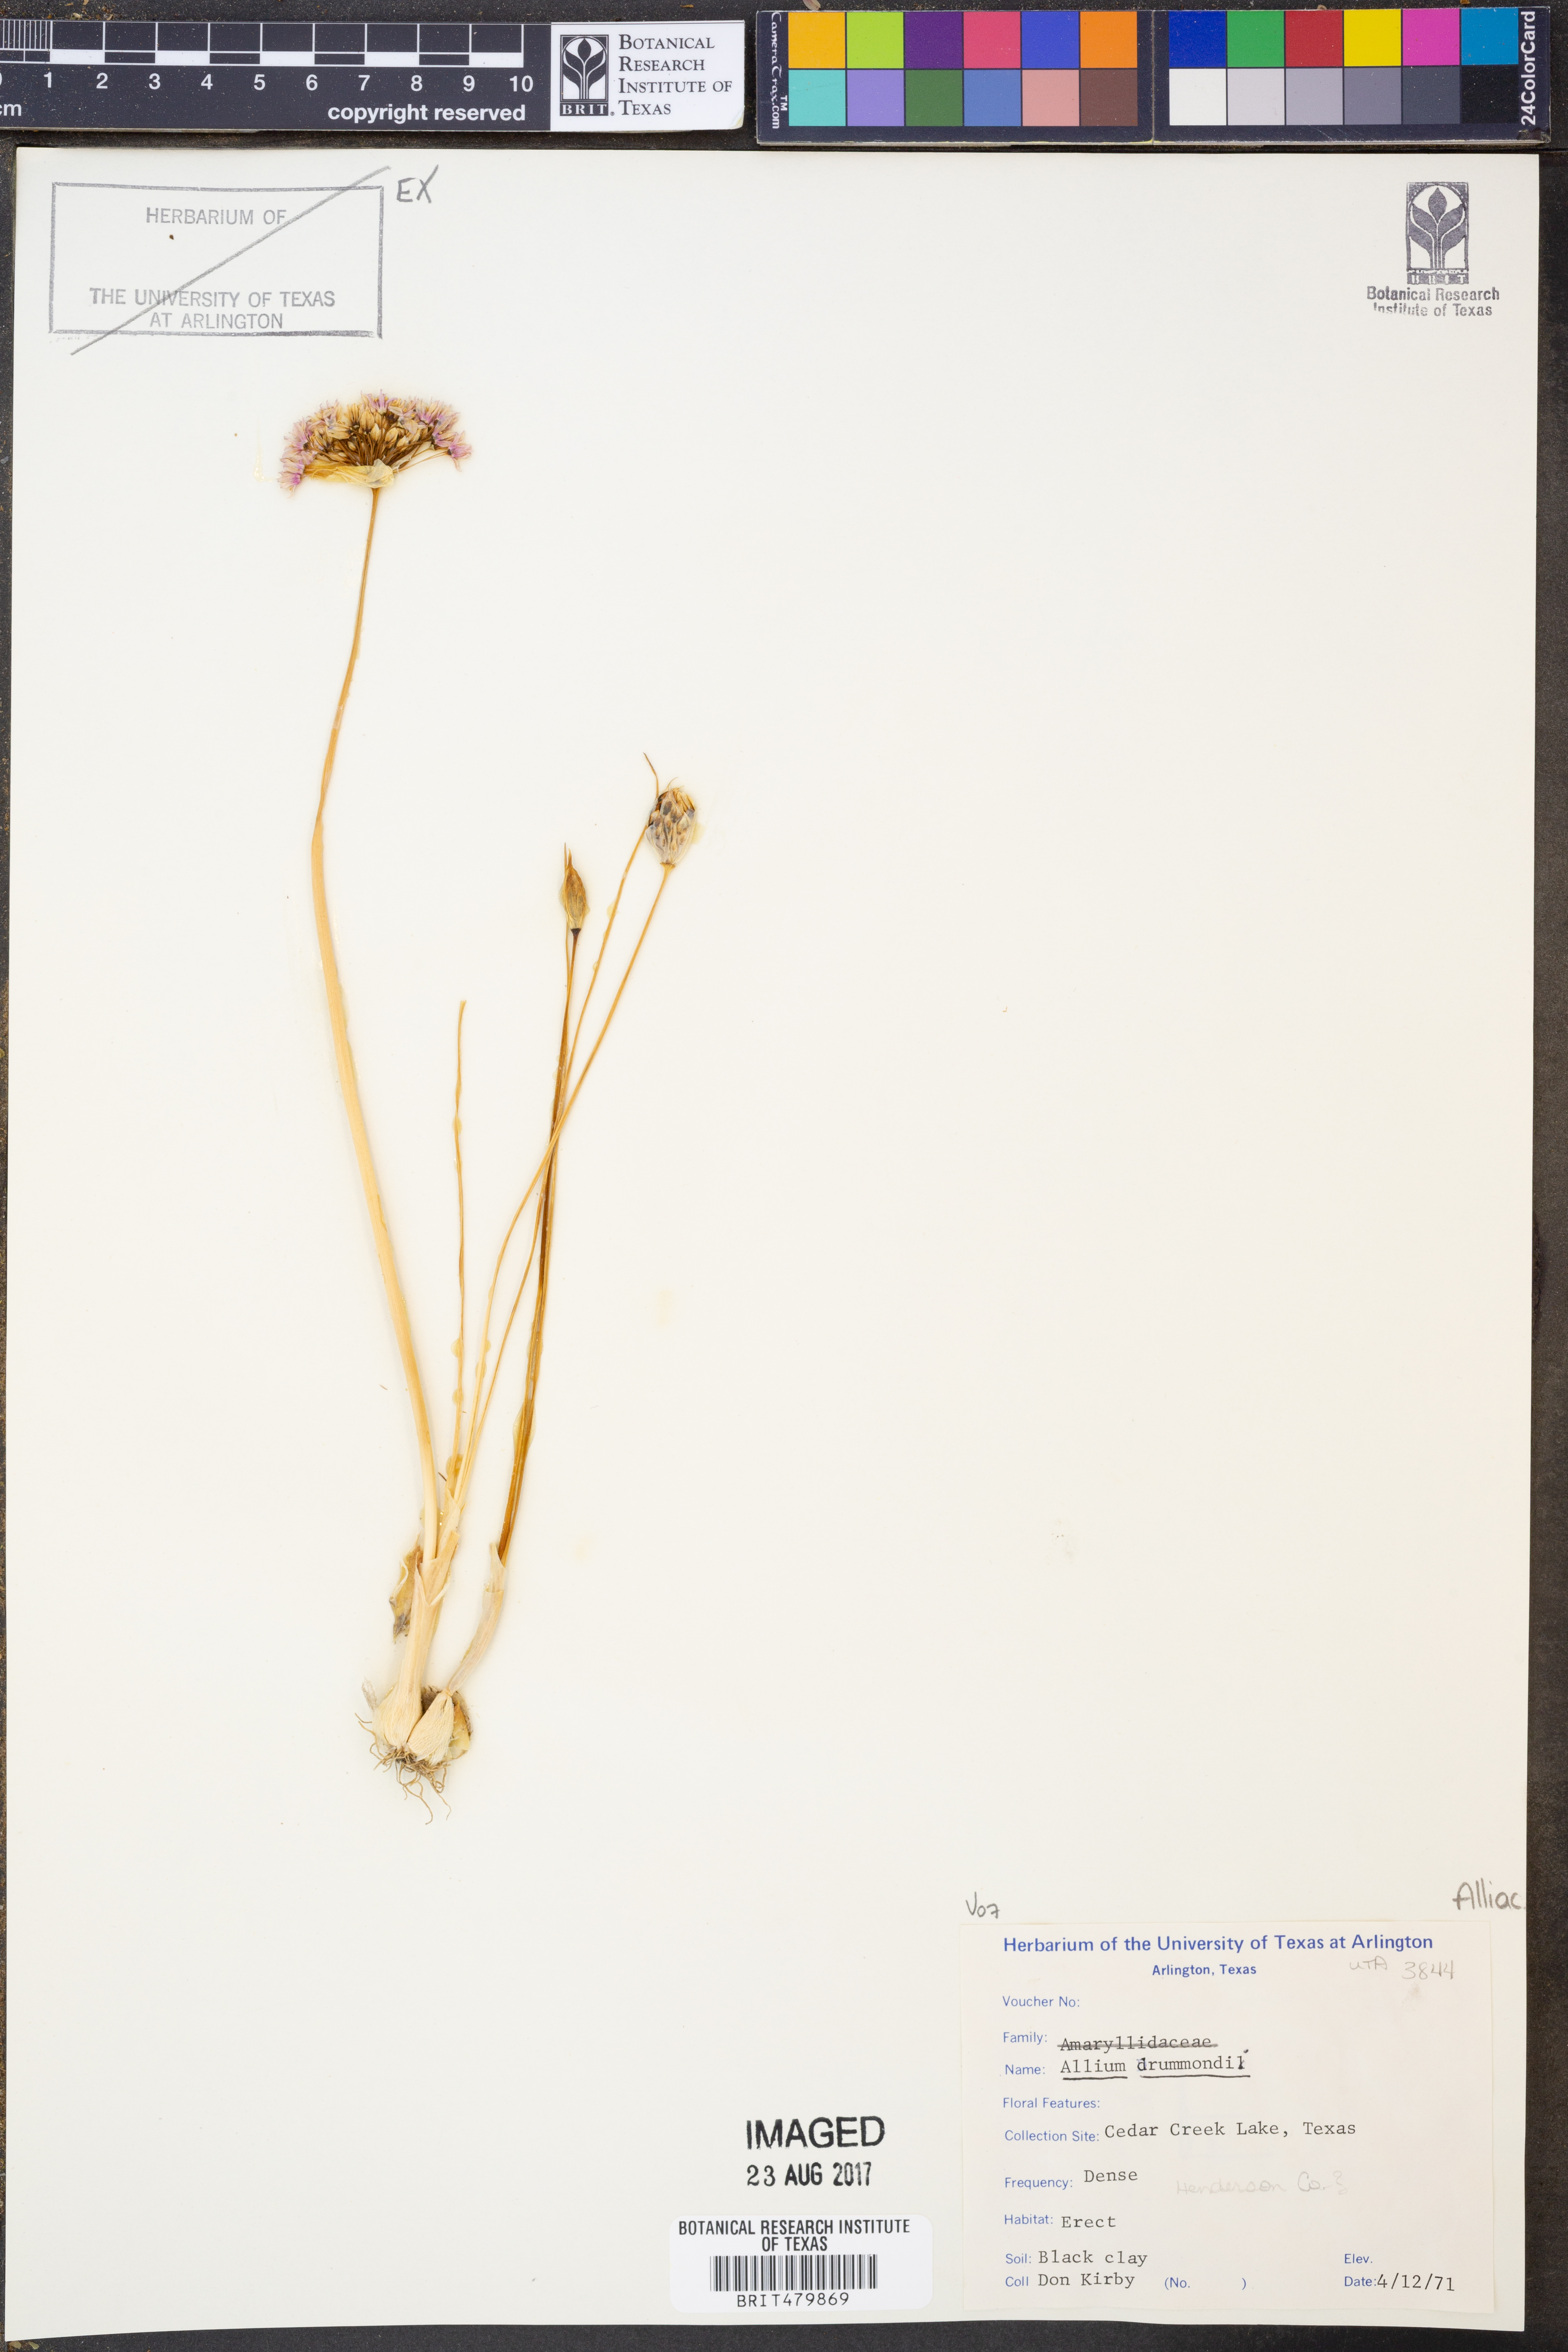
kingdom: Plantae
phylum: Tracheophyta
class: Liliopsida
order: Asparagales
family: Amaryllidaceae
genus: Allium
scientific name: Allium drummondii
